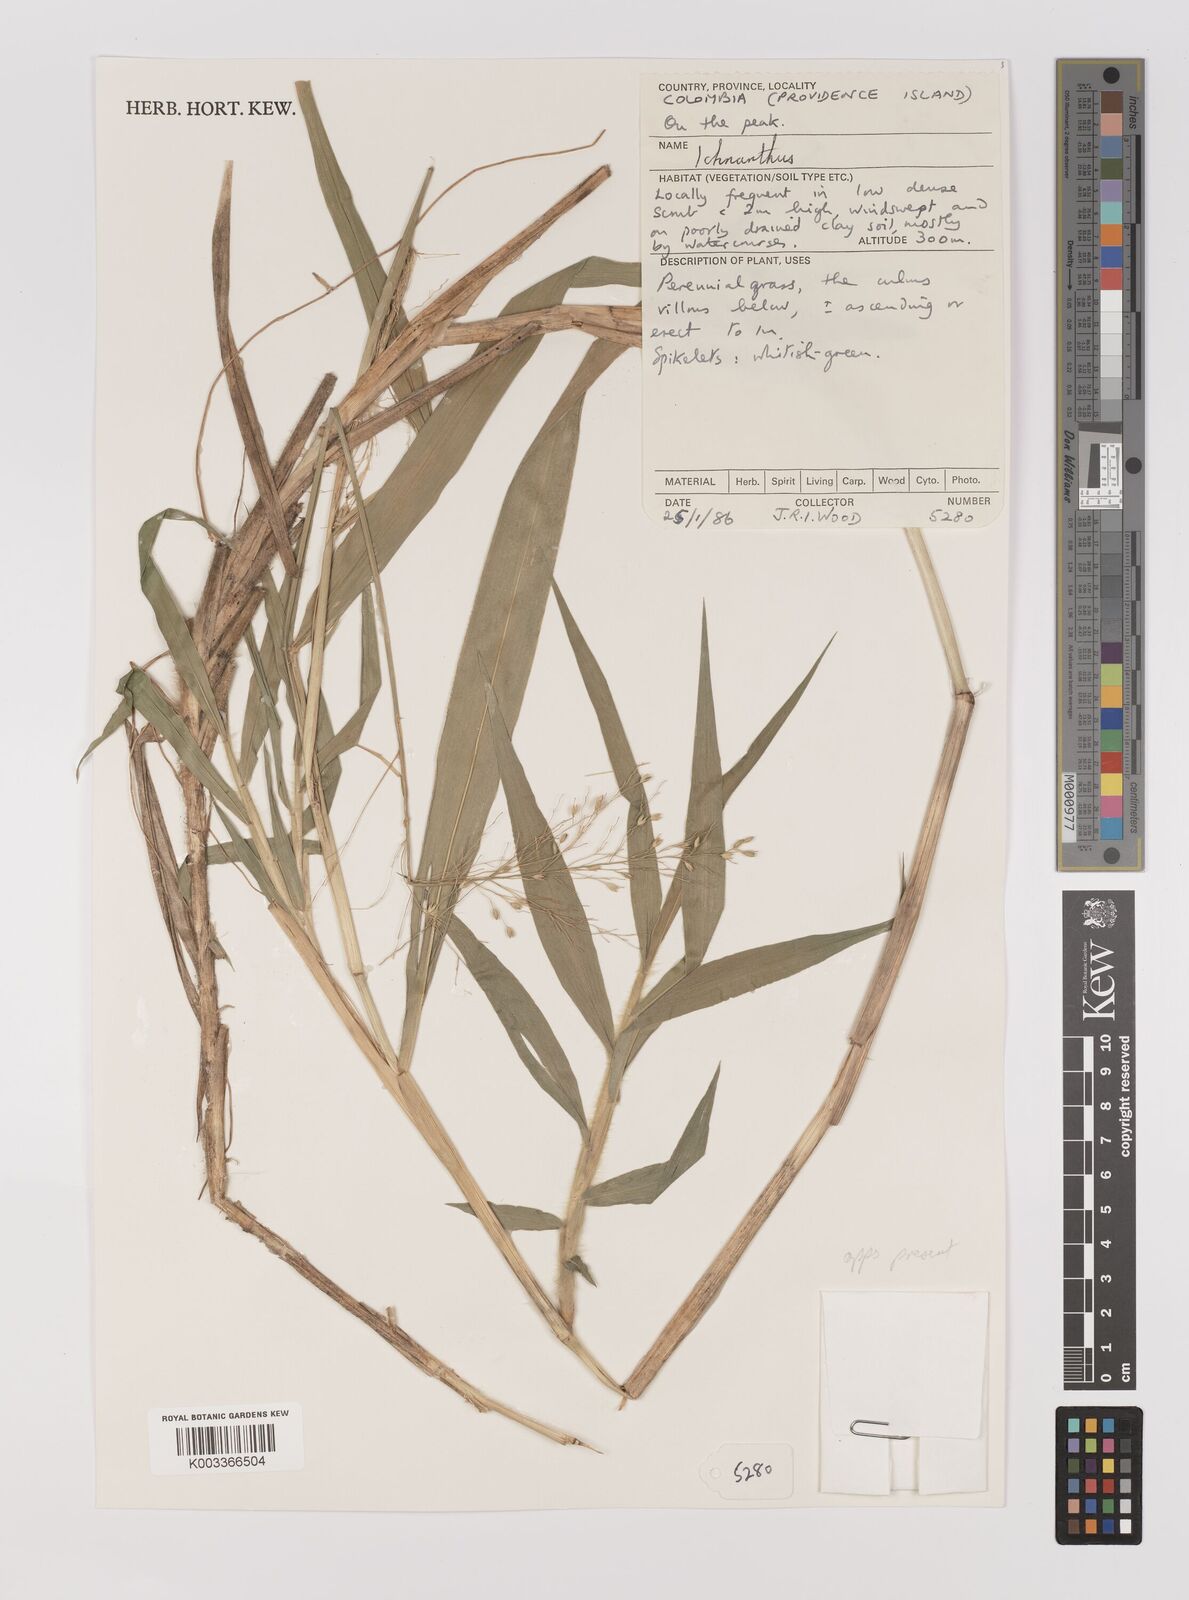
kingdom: Plantae
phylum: Tracheophyta
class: Liliopsida
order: Poales
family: Poaceae
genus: Ichnanthus
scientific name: Ichnanthus
